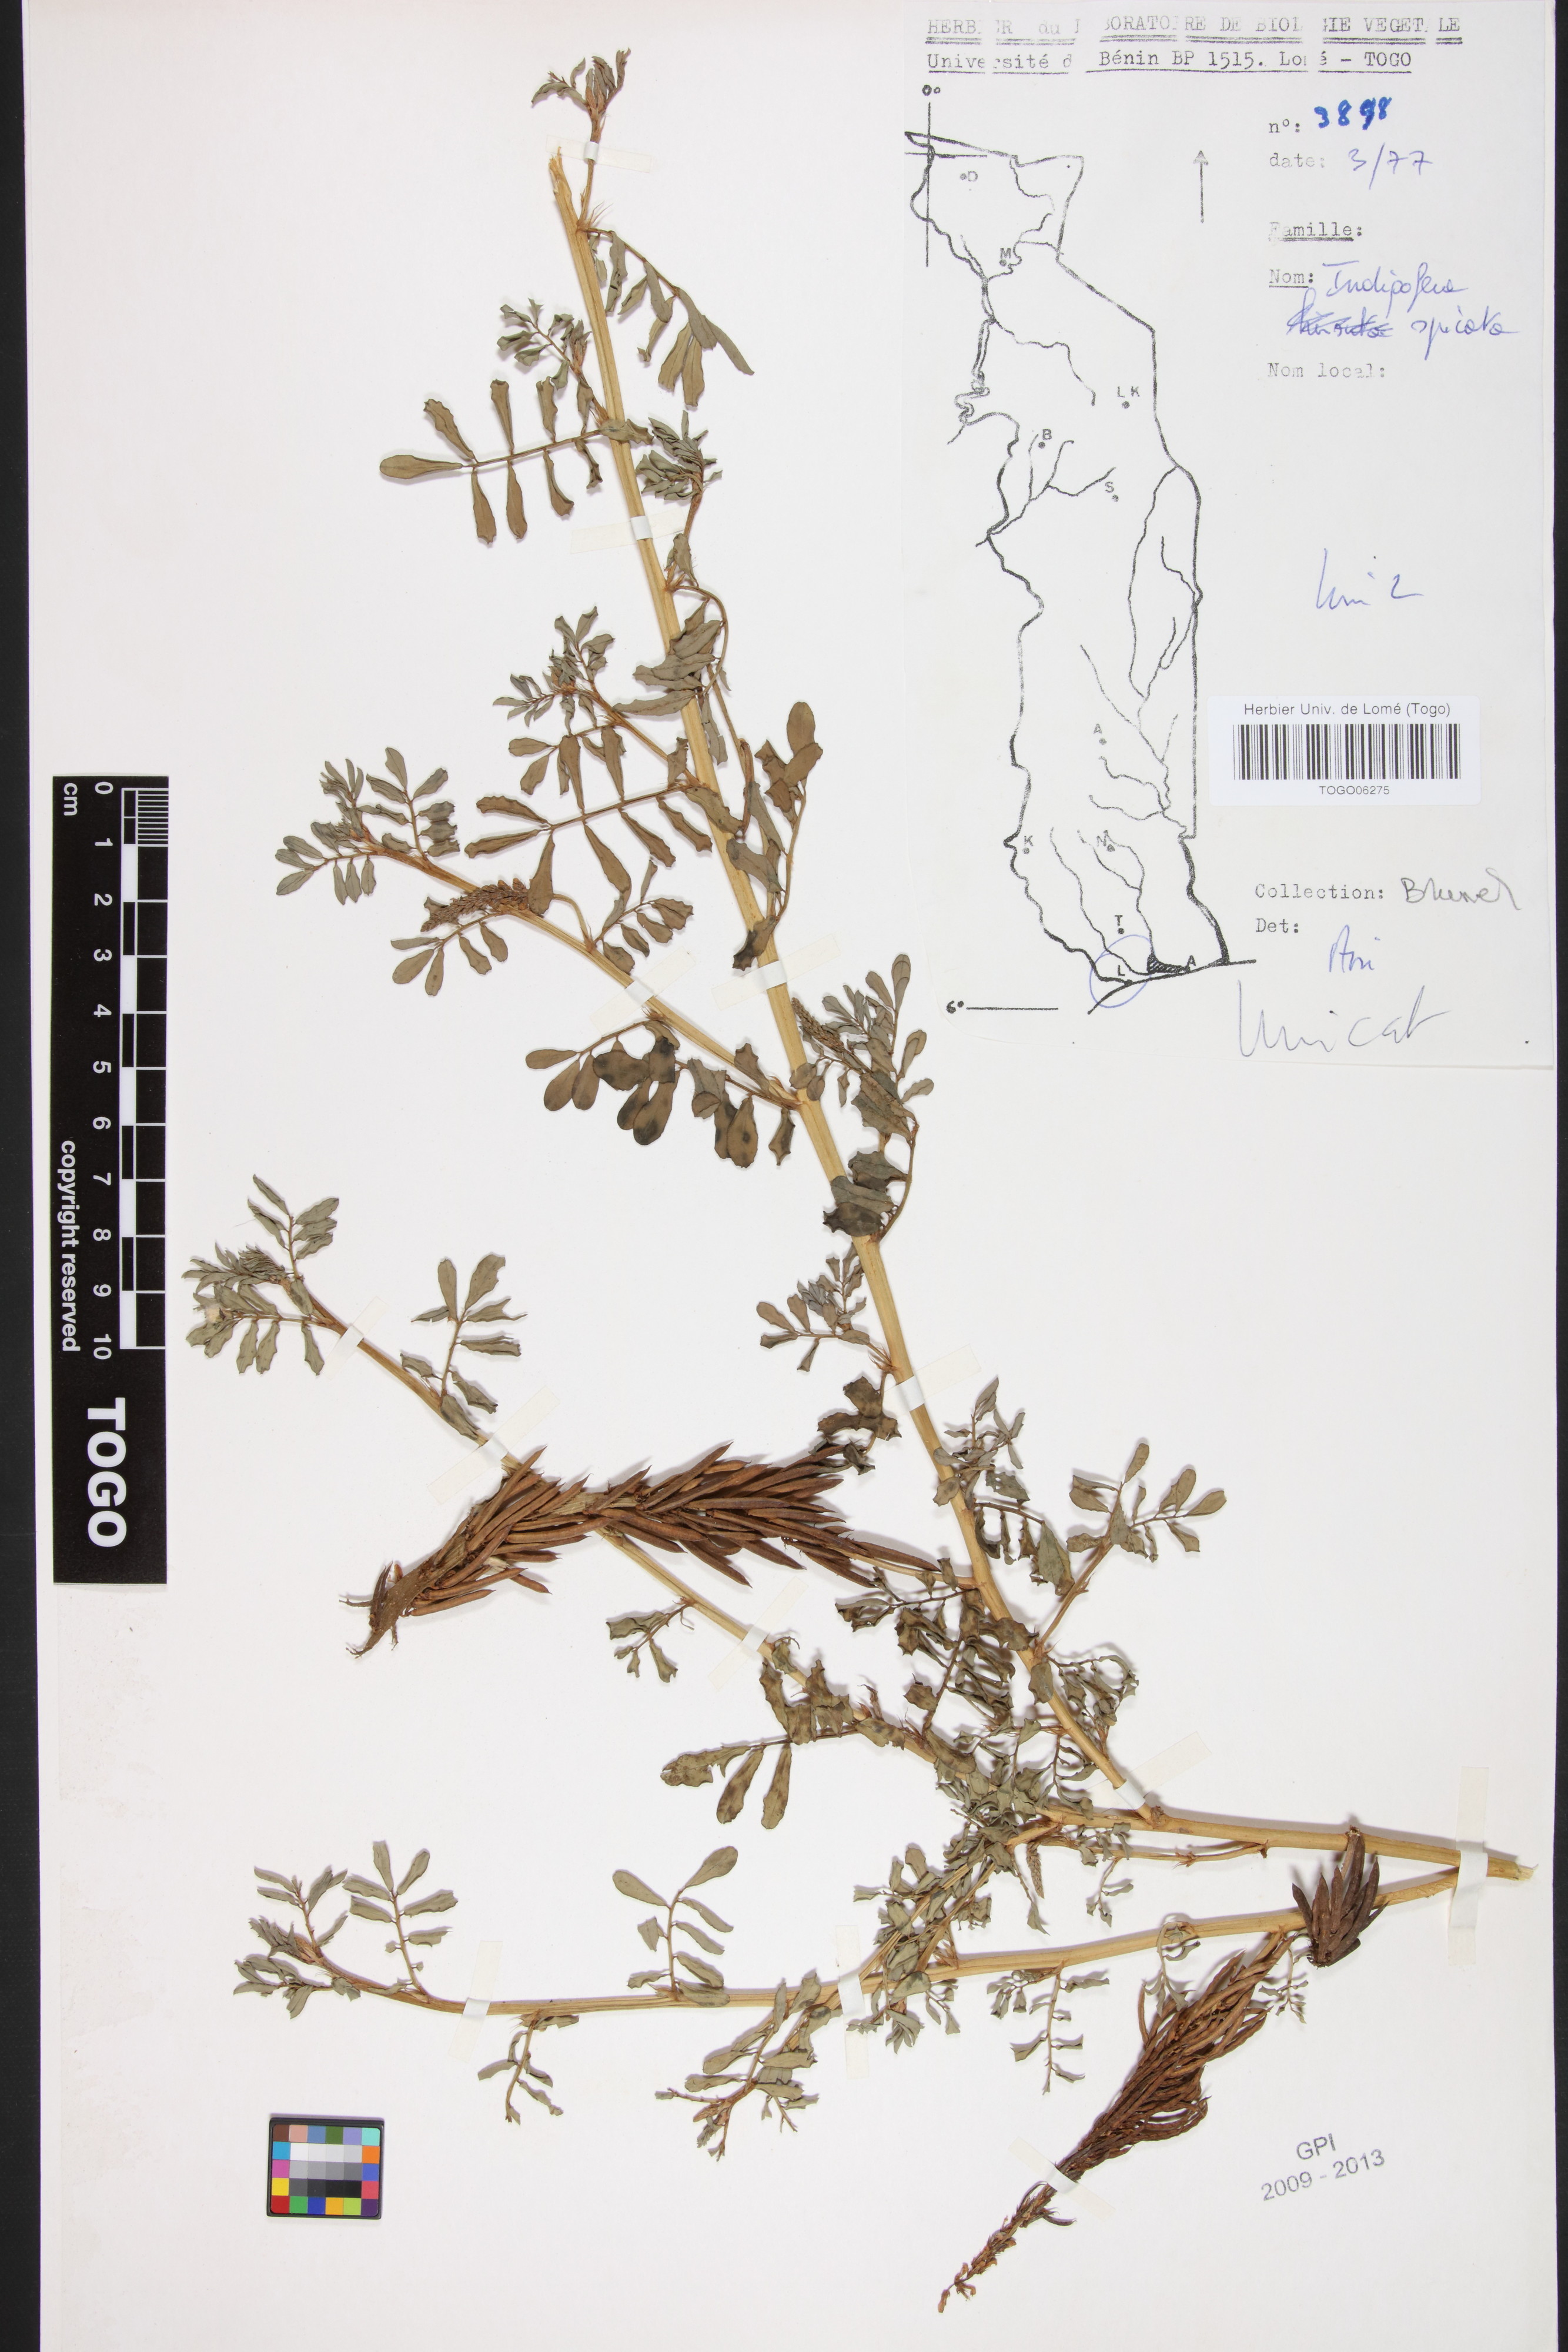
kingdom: Plantae
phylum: Tracheophyta
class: Magnoliopsida
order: Fabales
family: Fabaceae
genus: Indigofera
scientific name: Indigofera spicata
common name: Creeping indigo
